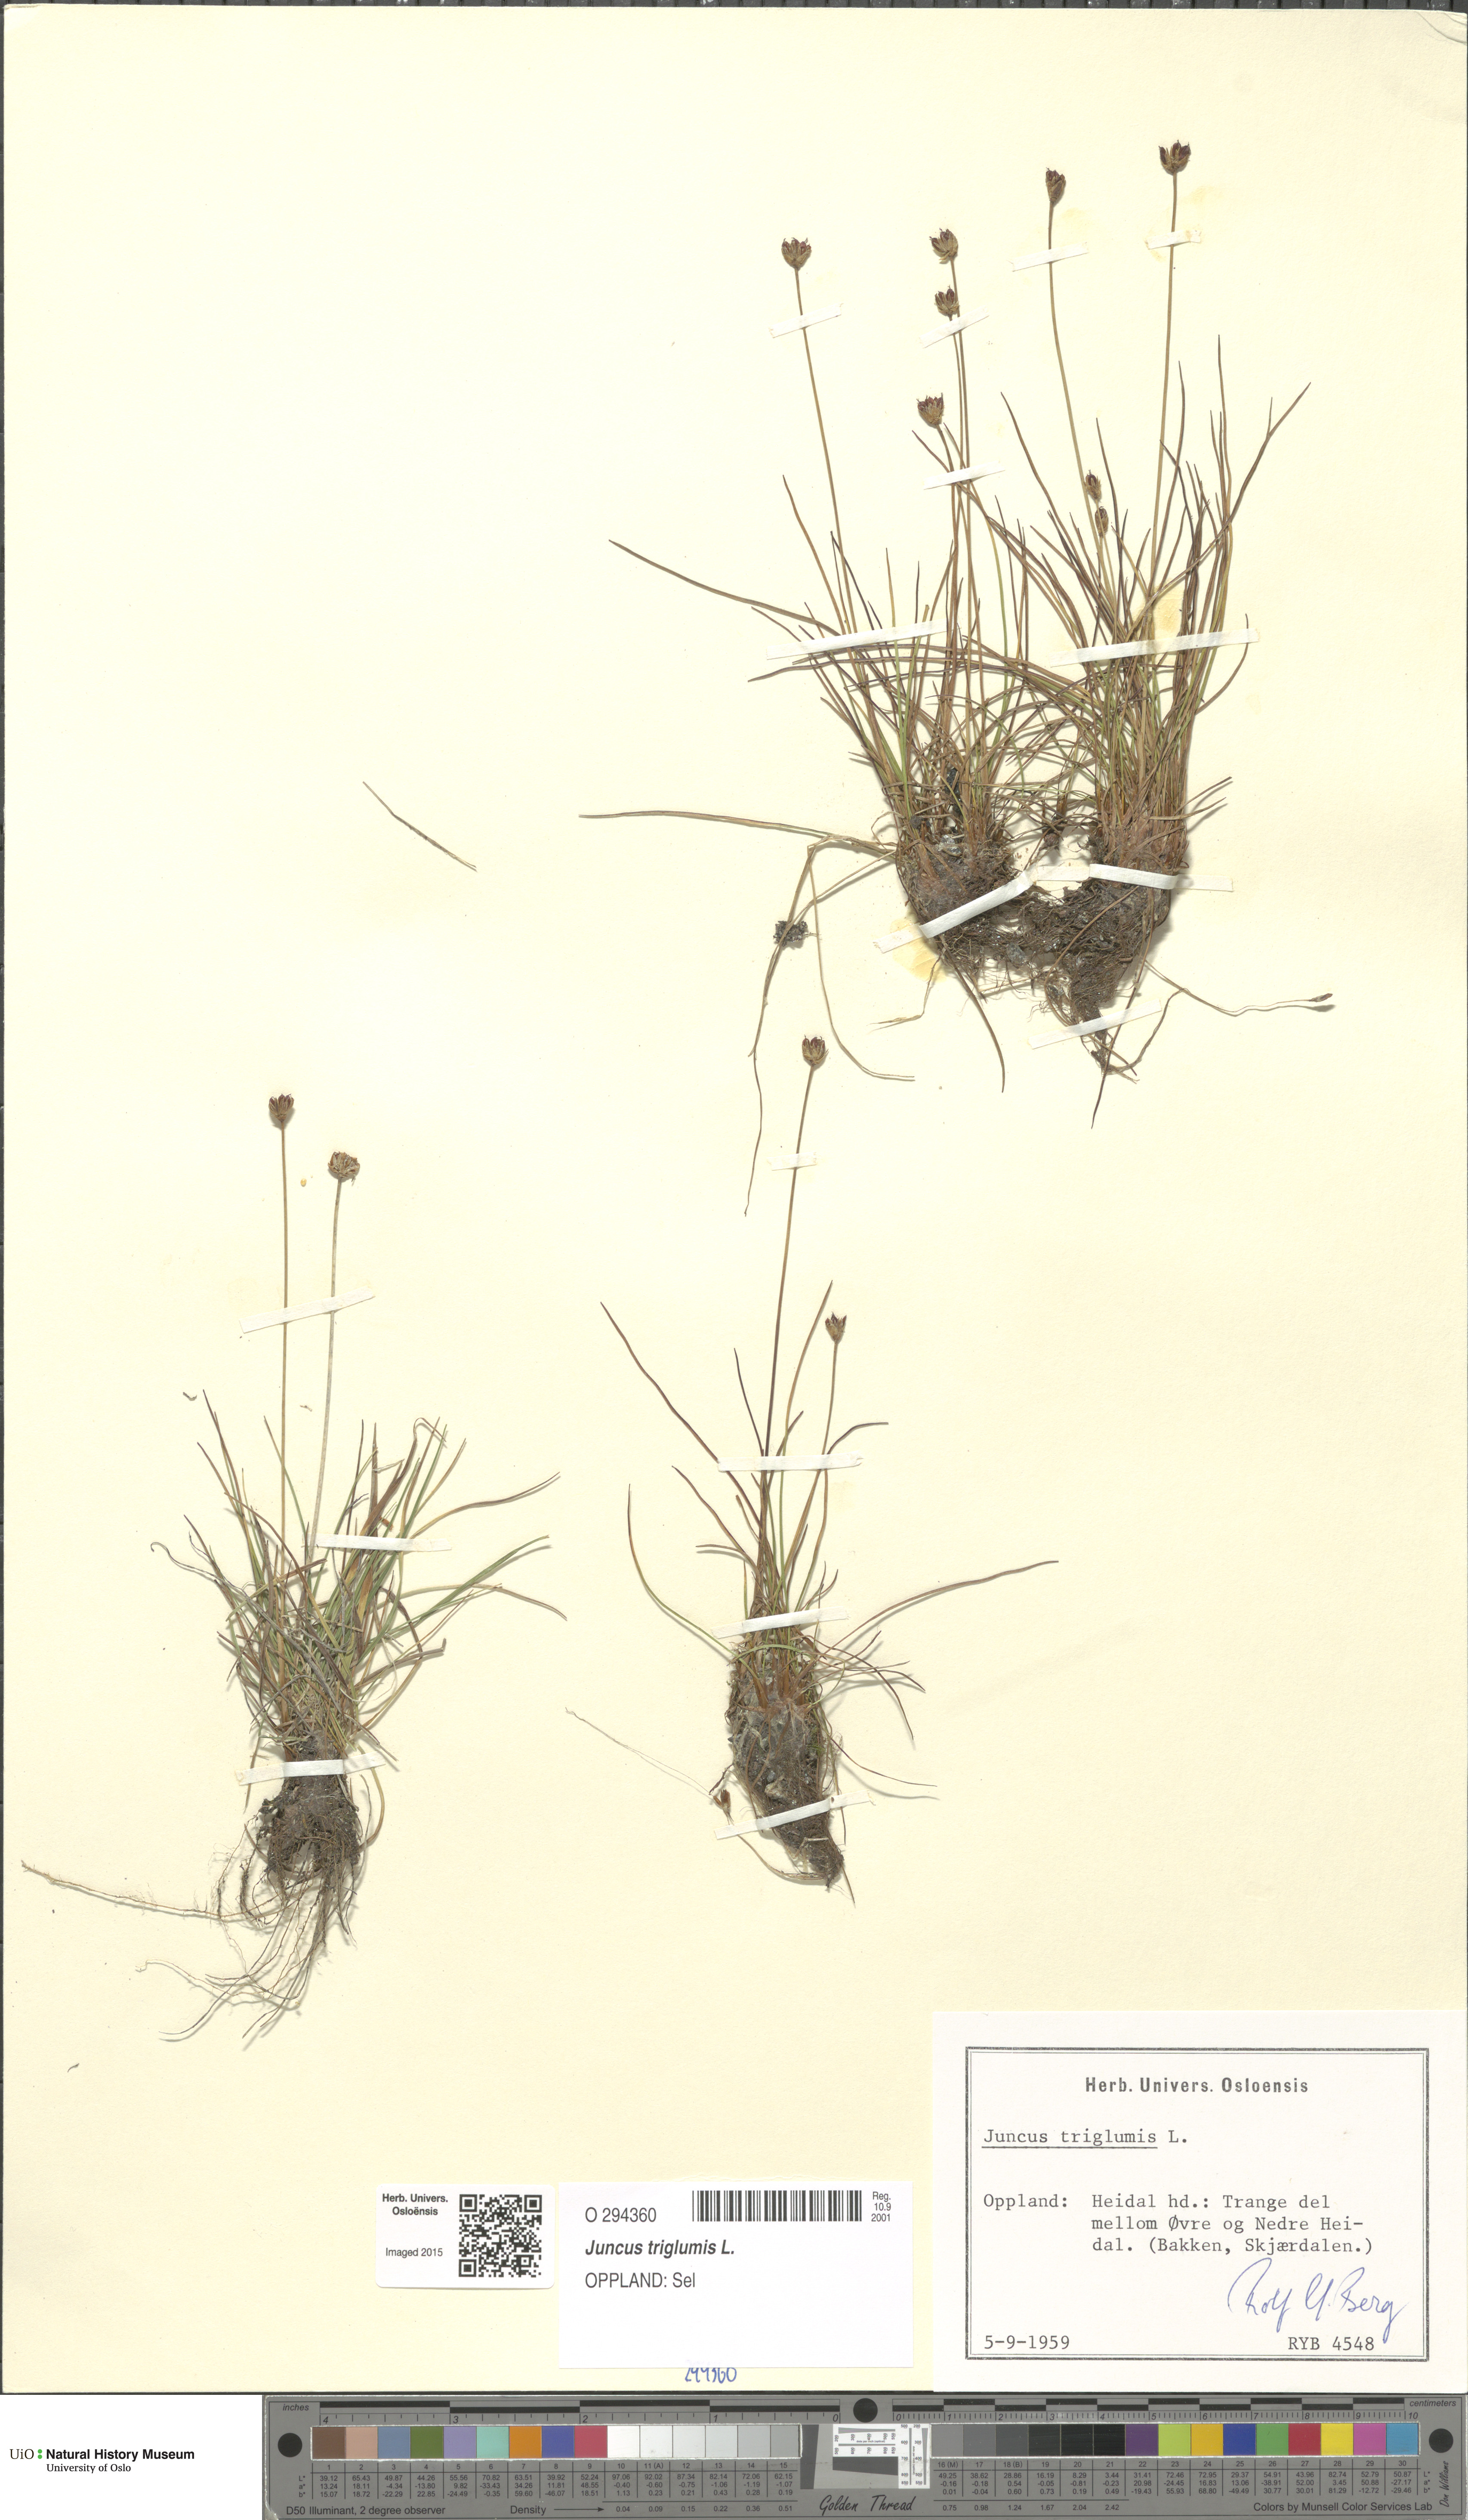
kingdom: Plantae
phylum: Tracheophyta
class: Liliopsida
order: Poales
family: Juncaceae
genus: Juncus
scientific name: Juncus triglumis
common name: Three-flowered rush
